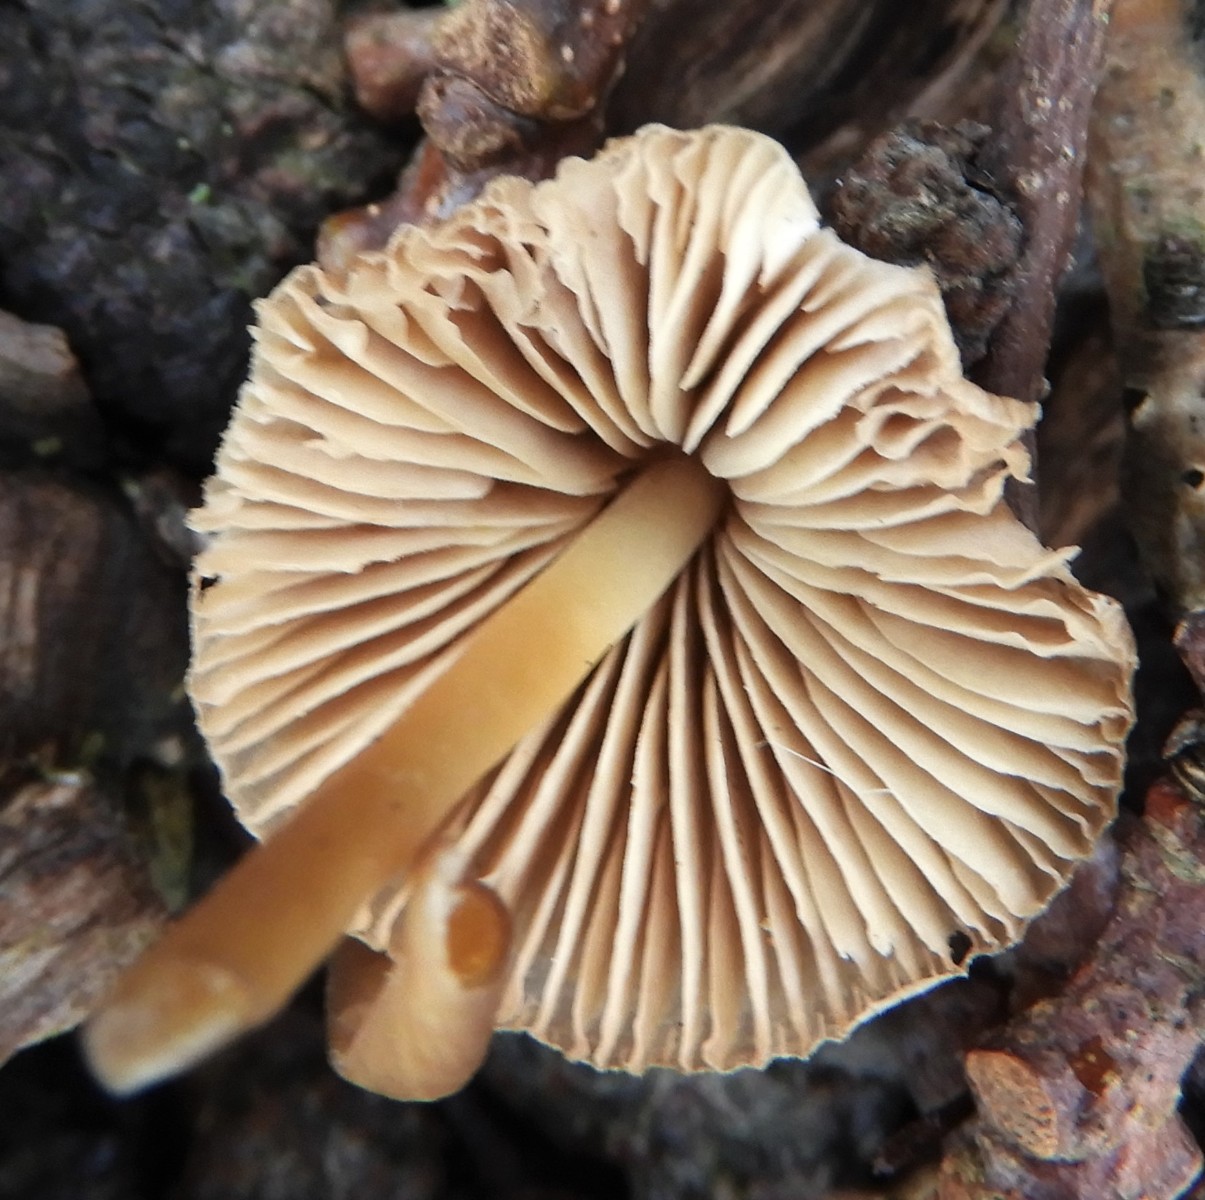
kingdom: Fungi
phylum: Basidiomycota
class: Agaricomycetes
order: Agaricales
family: Mycenaceae
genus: Mycena
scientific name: Mycena galericulata
